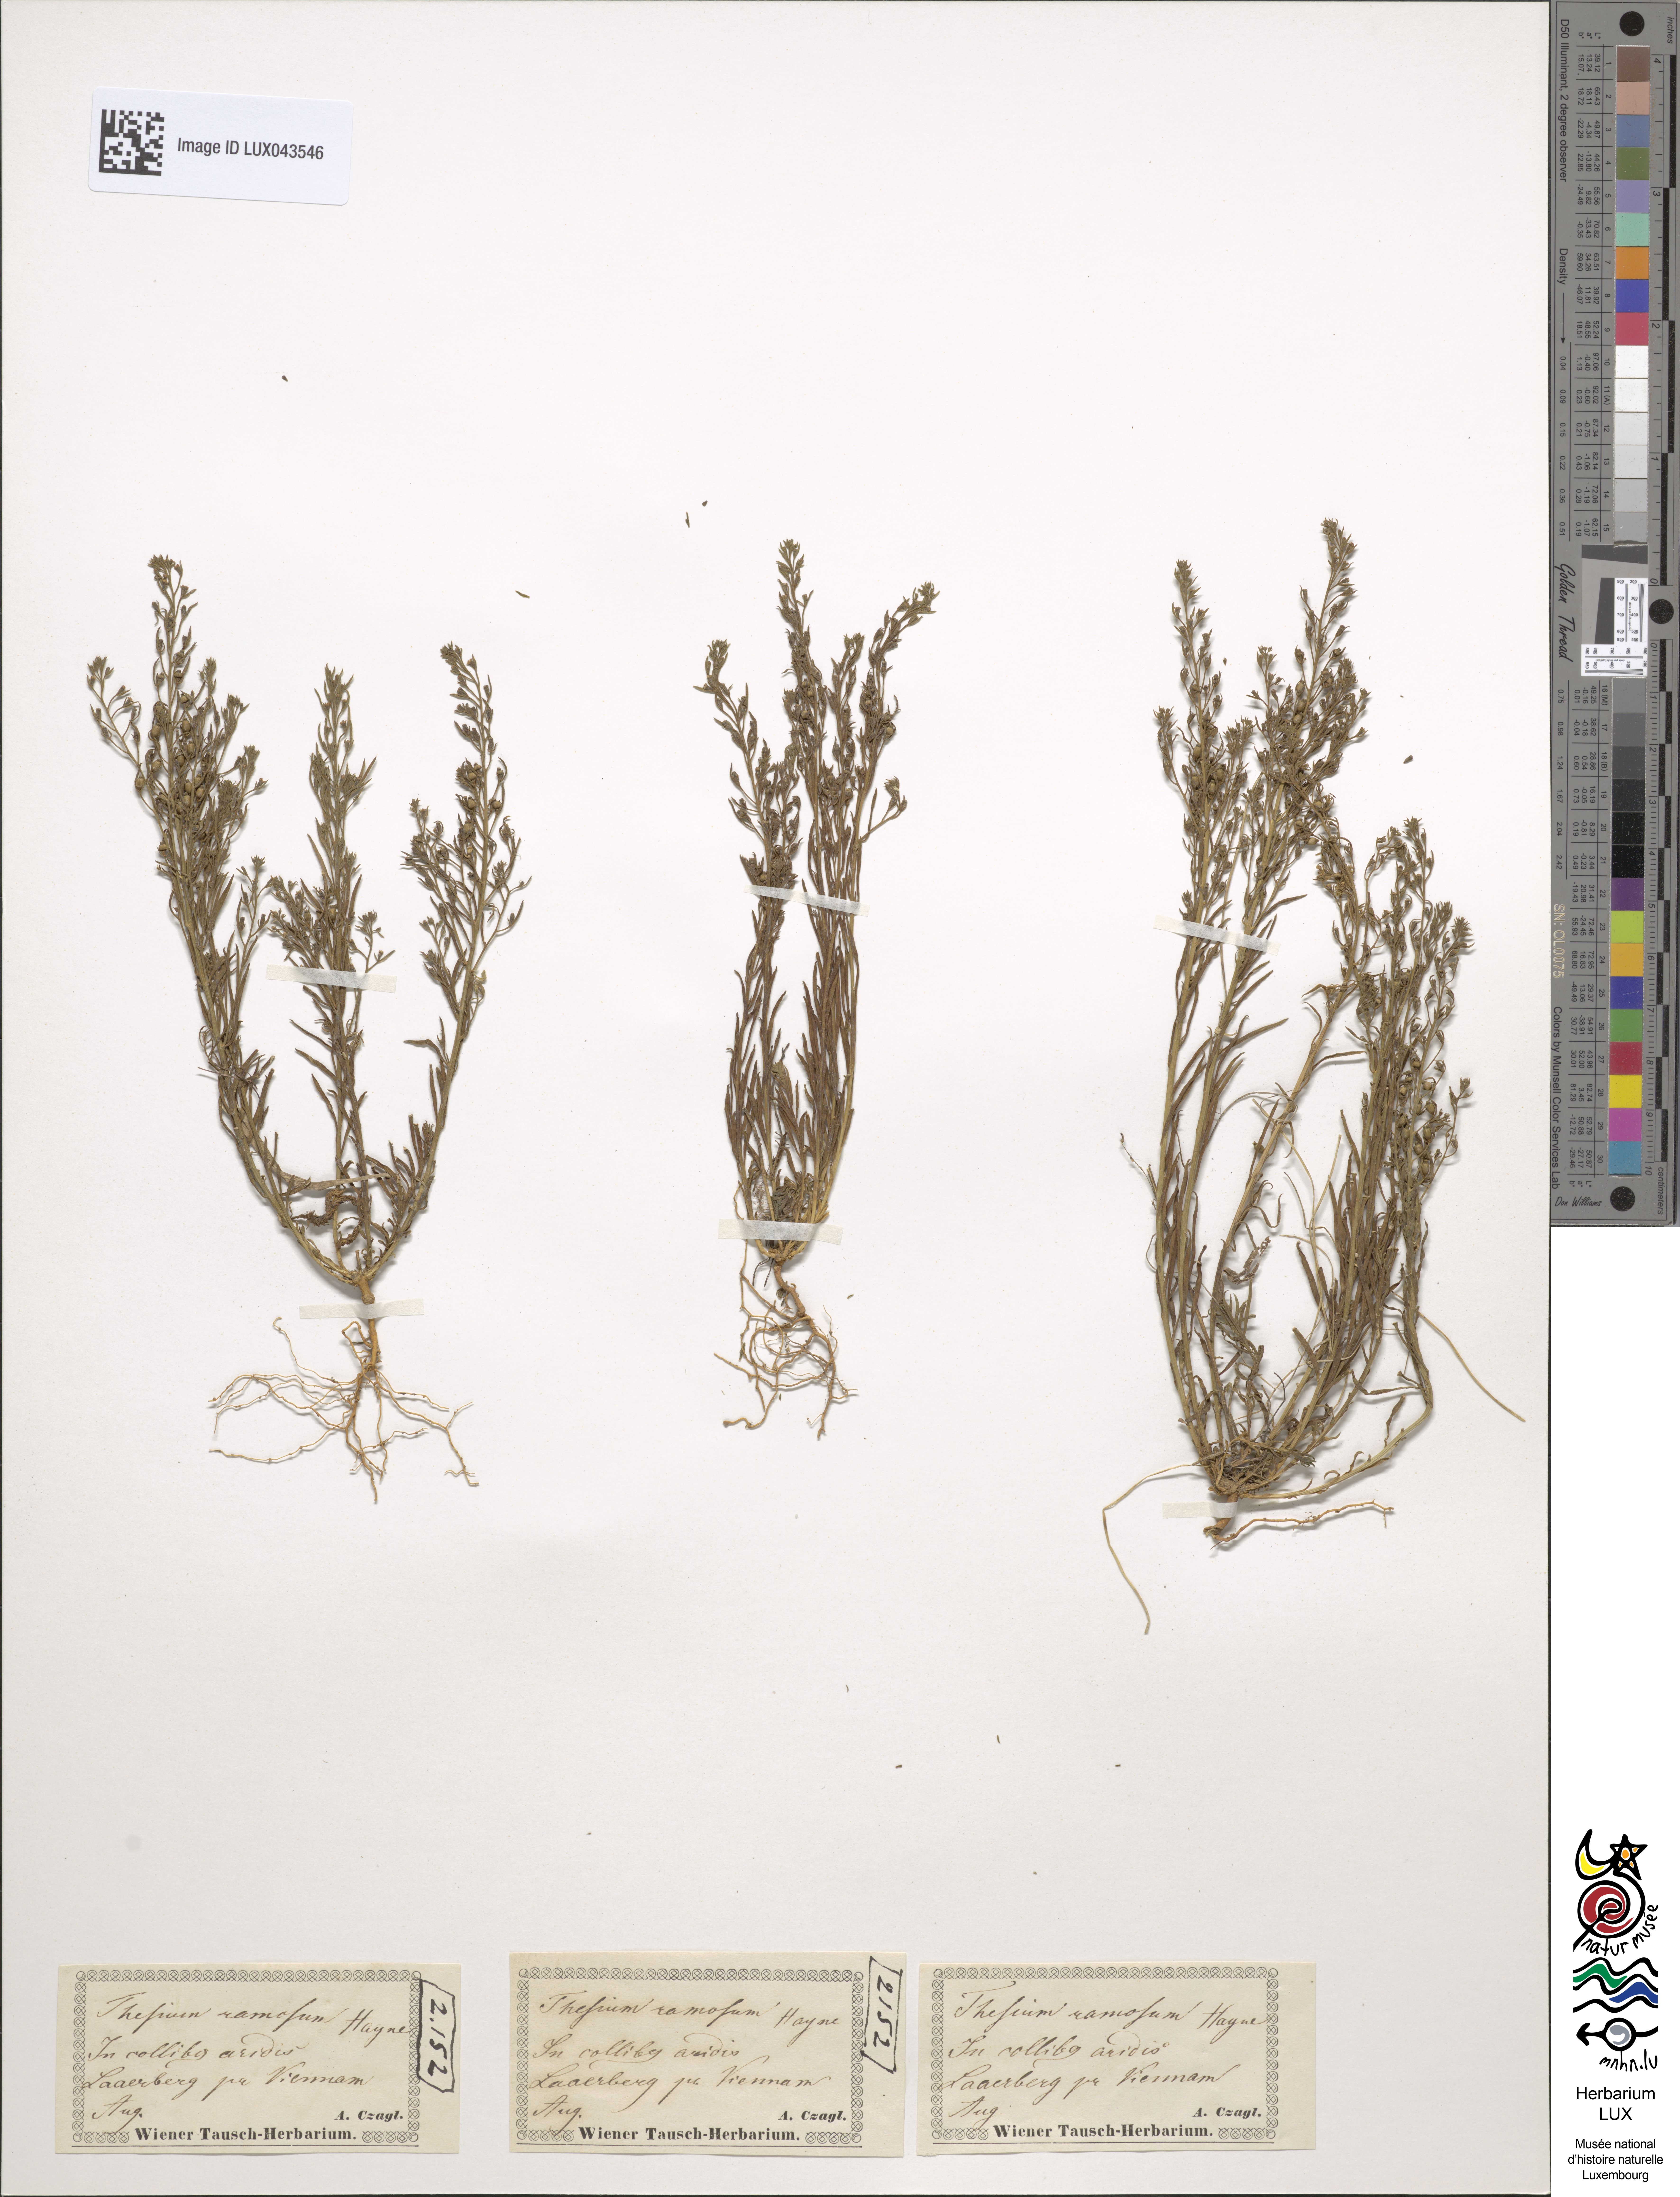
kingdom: Plantae
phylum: Tracheophyta
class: Magnoliopsida
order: Santalales
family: Thesiaceae
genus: Thesium
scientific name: Thesium
